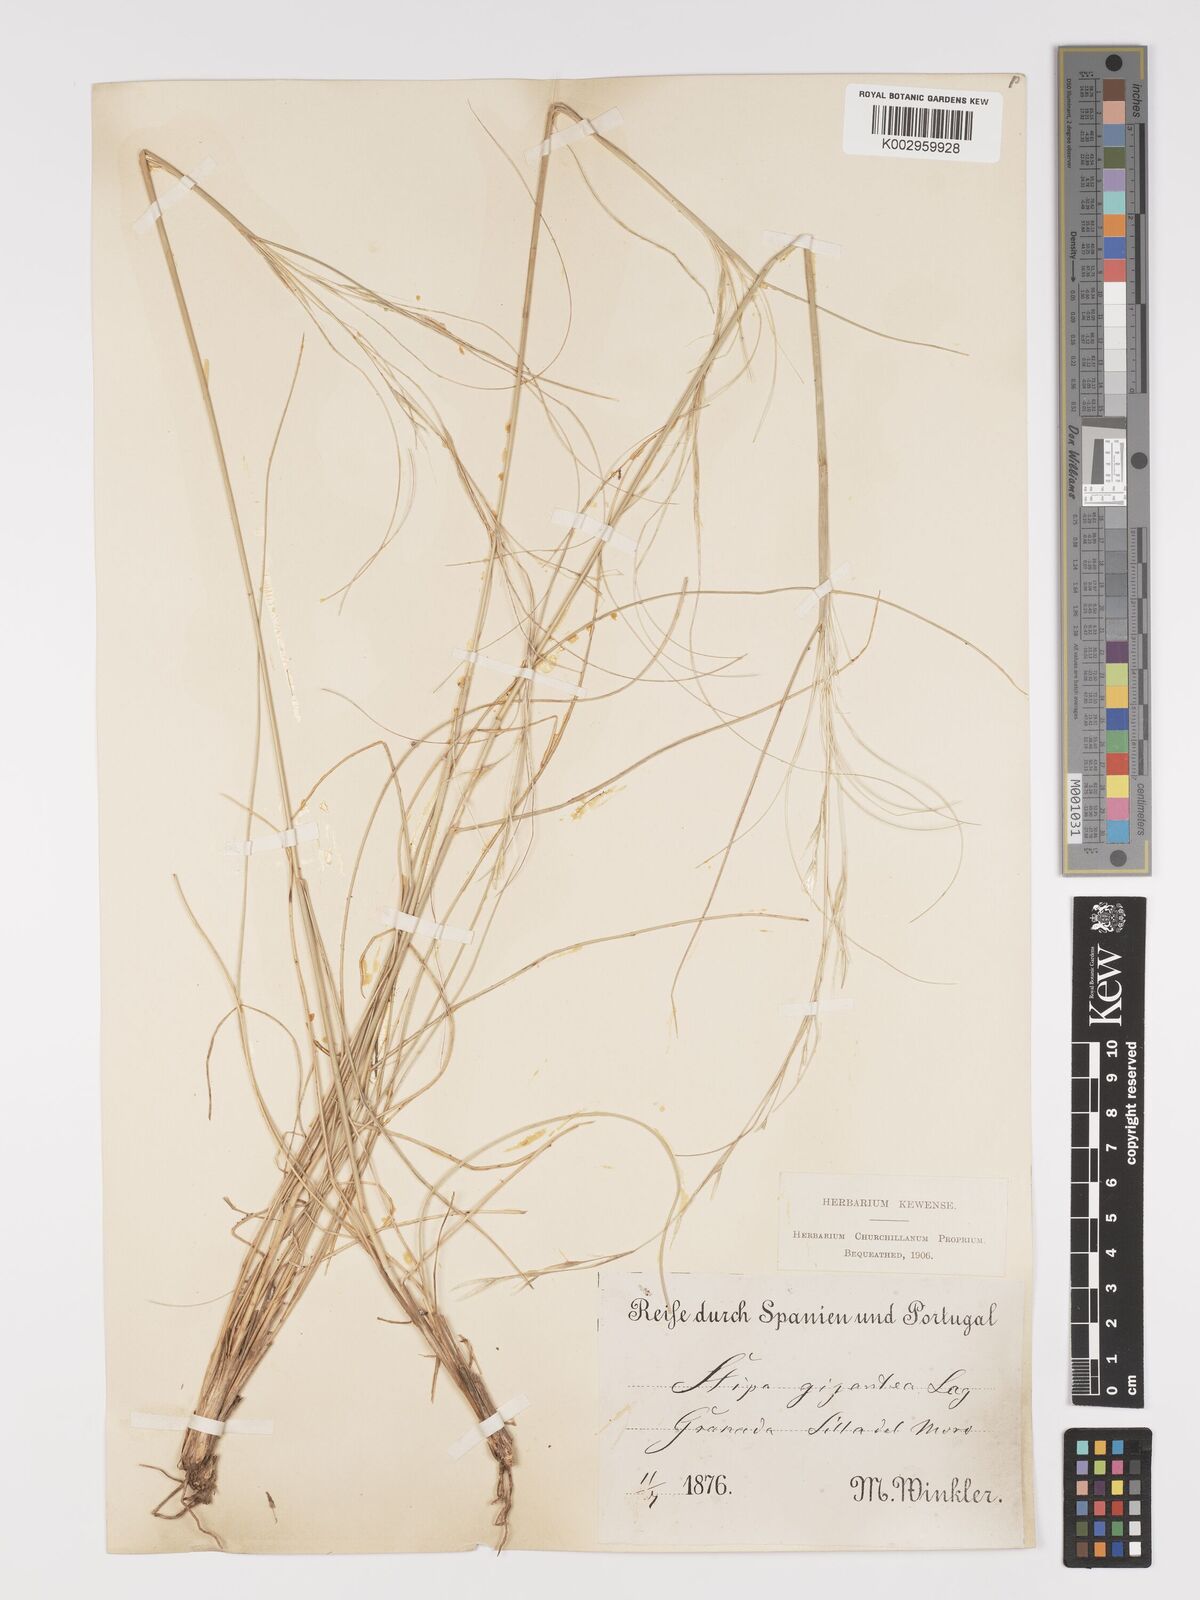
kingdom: Plantae
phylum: Tracheophyta
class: Liliopsida
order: Poales
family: Poaceae
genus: Stipa
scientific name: Stipa
